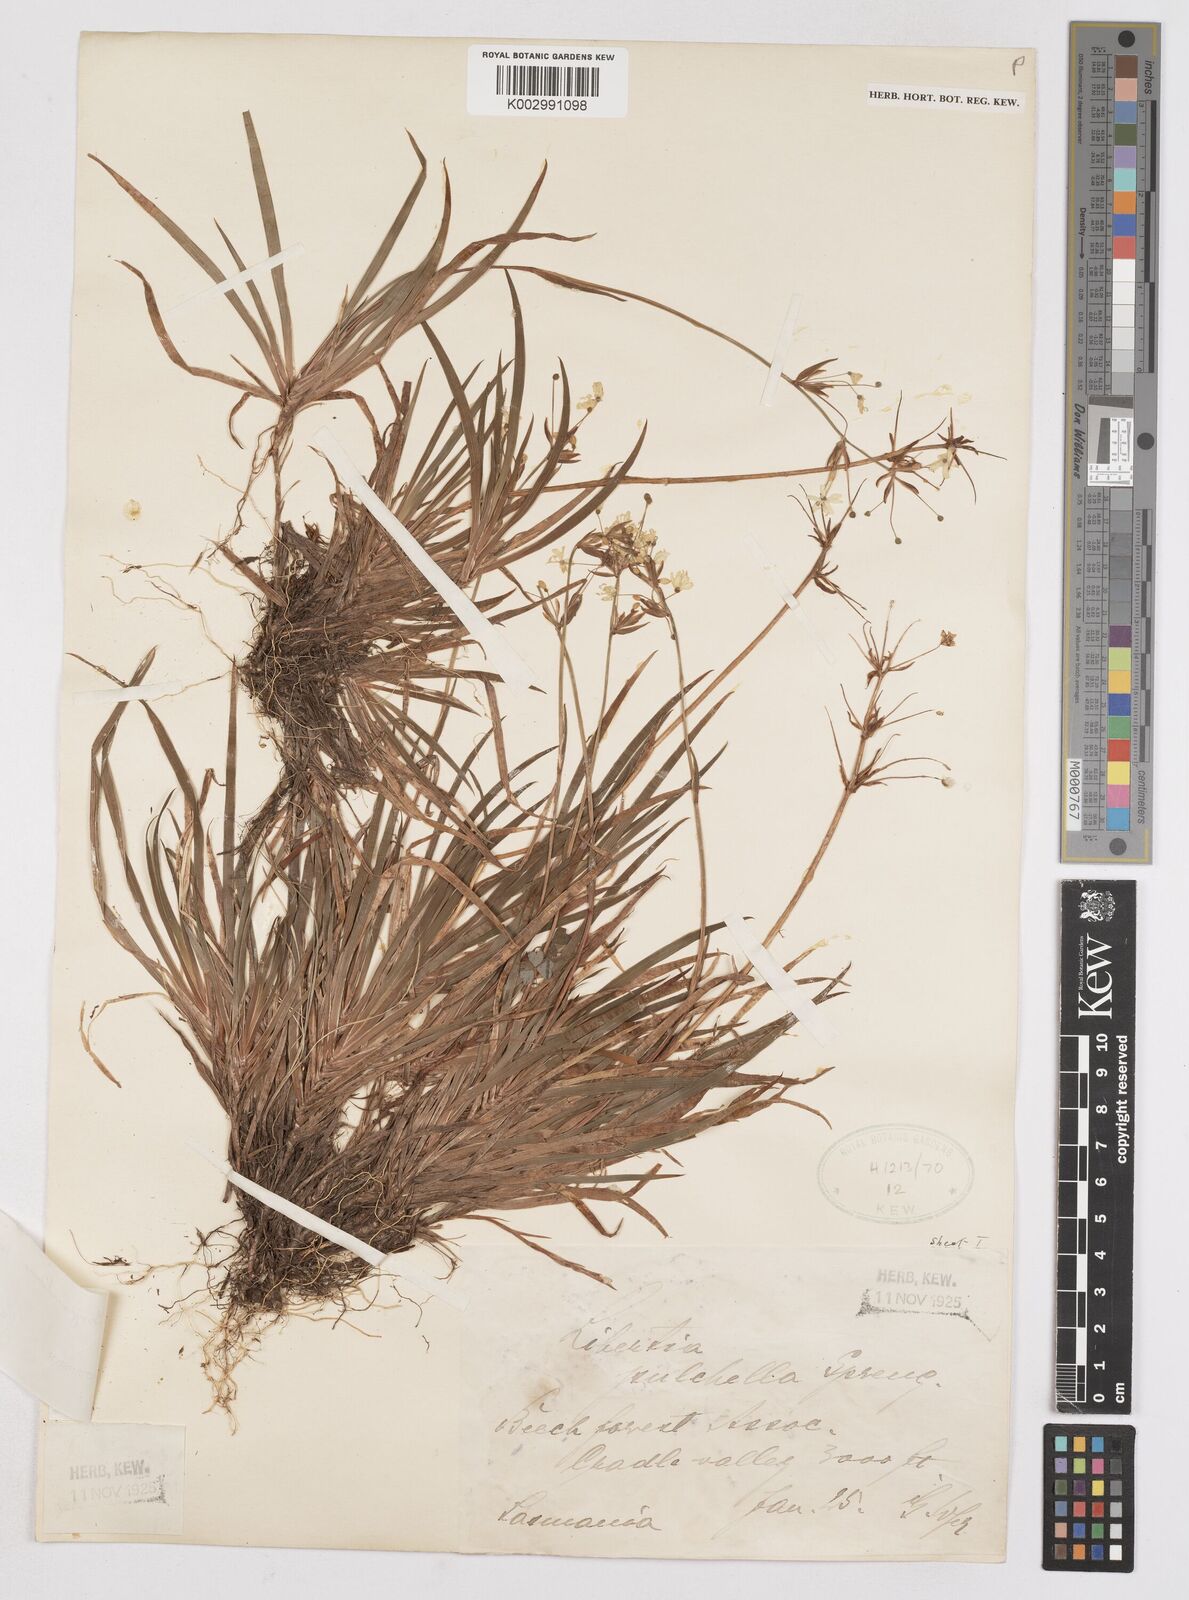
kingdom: Plantae
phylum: Tracheophyta
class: Liliopsida
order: Asparagales
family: Iridaceae
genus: Libertia
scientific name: Libertia pulchella
